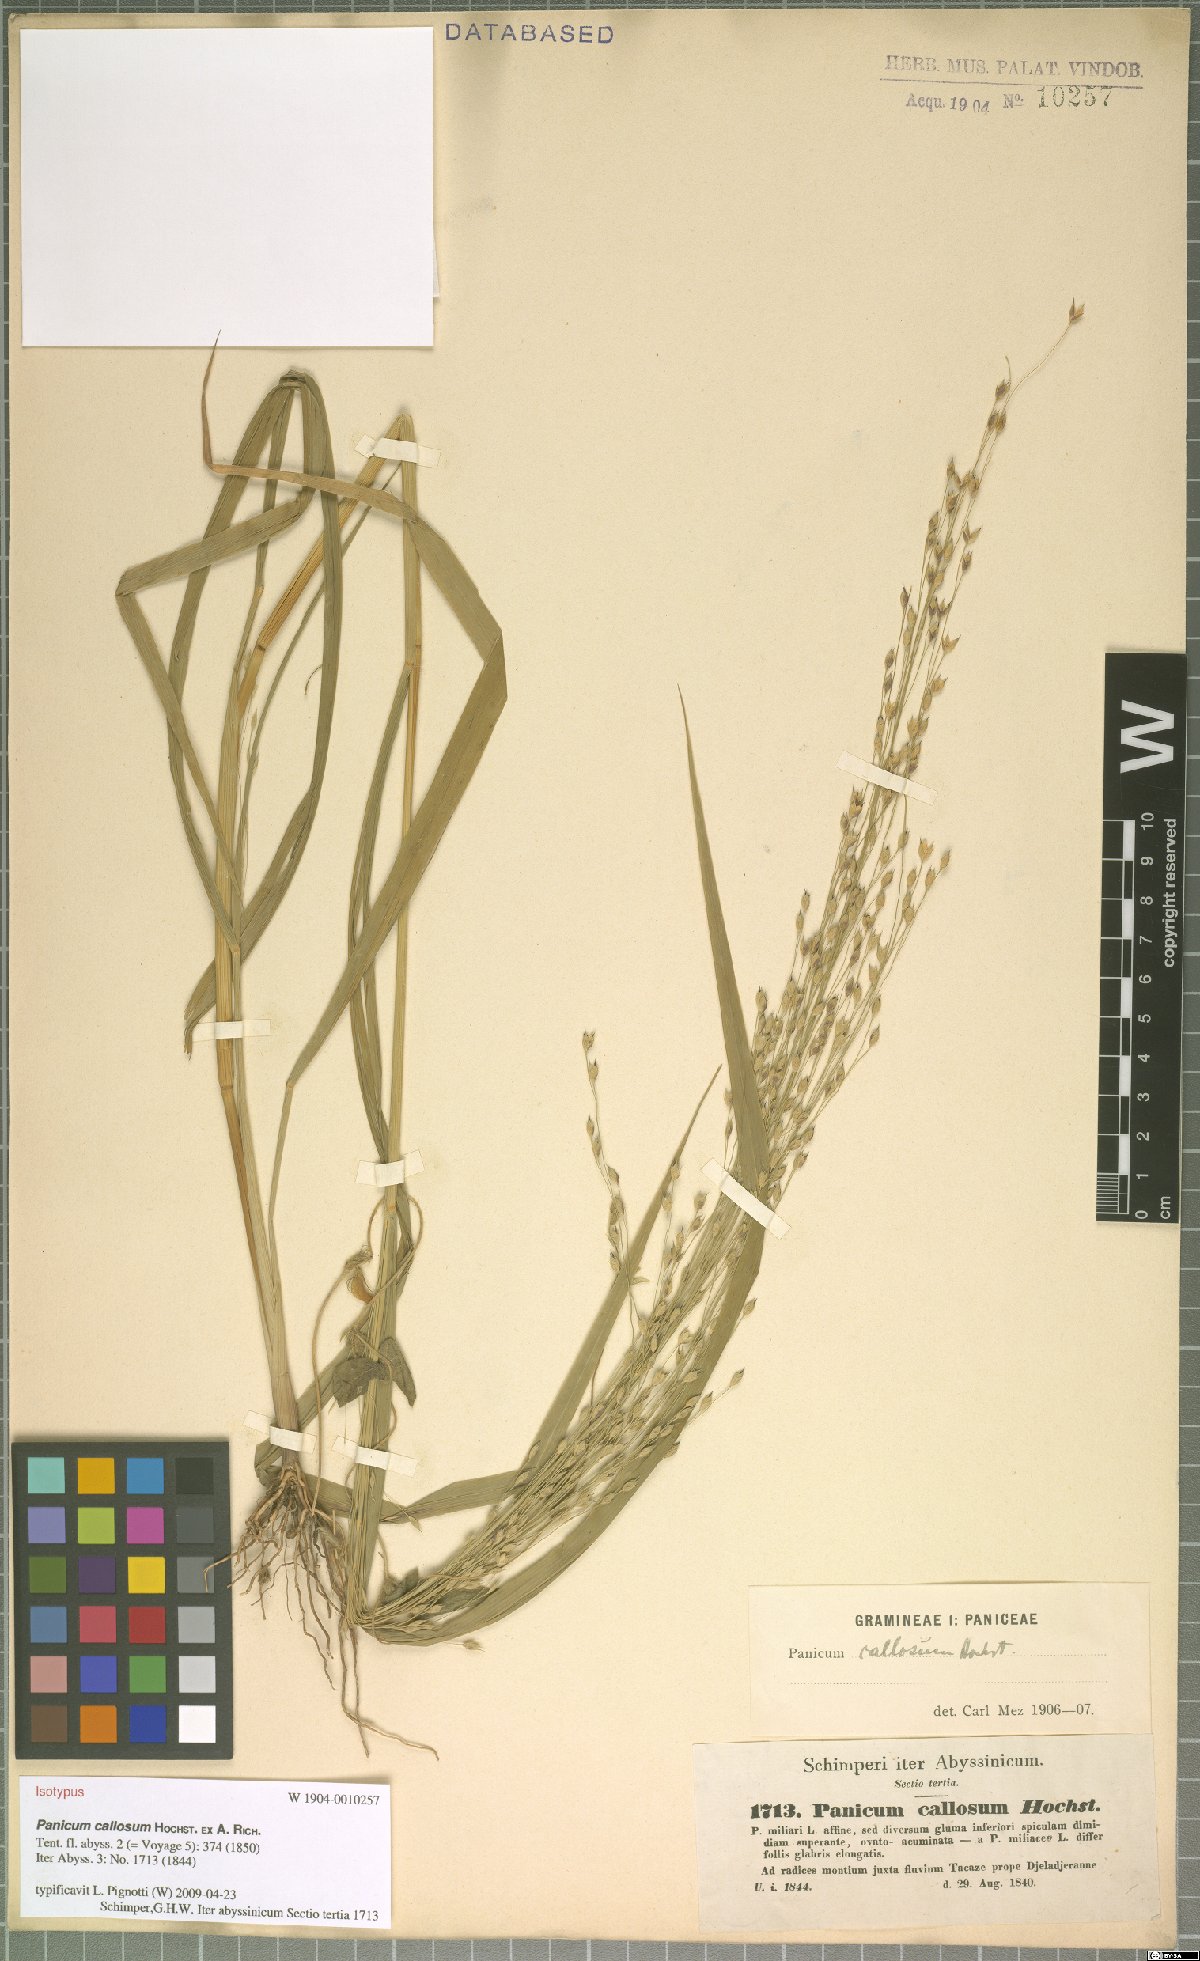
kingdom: Plantae
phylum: Tracheophyta
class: Liliopsida
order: Poales
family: Poaceae
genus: Panicum
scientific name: Panicum callosum
